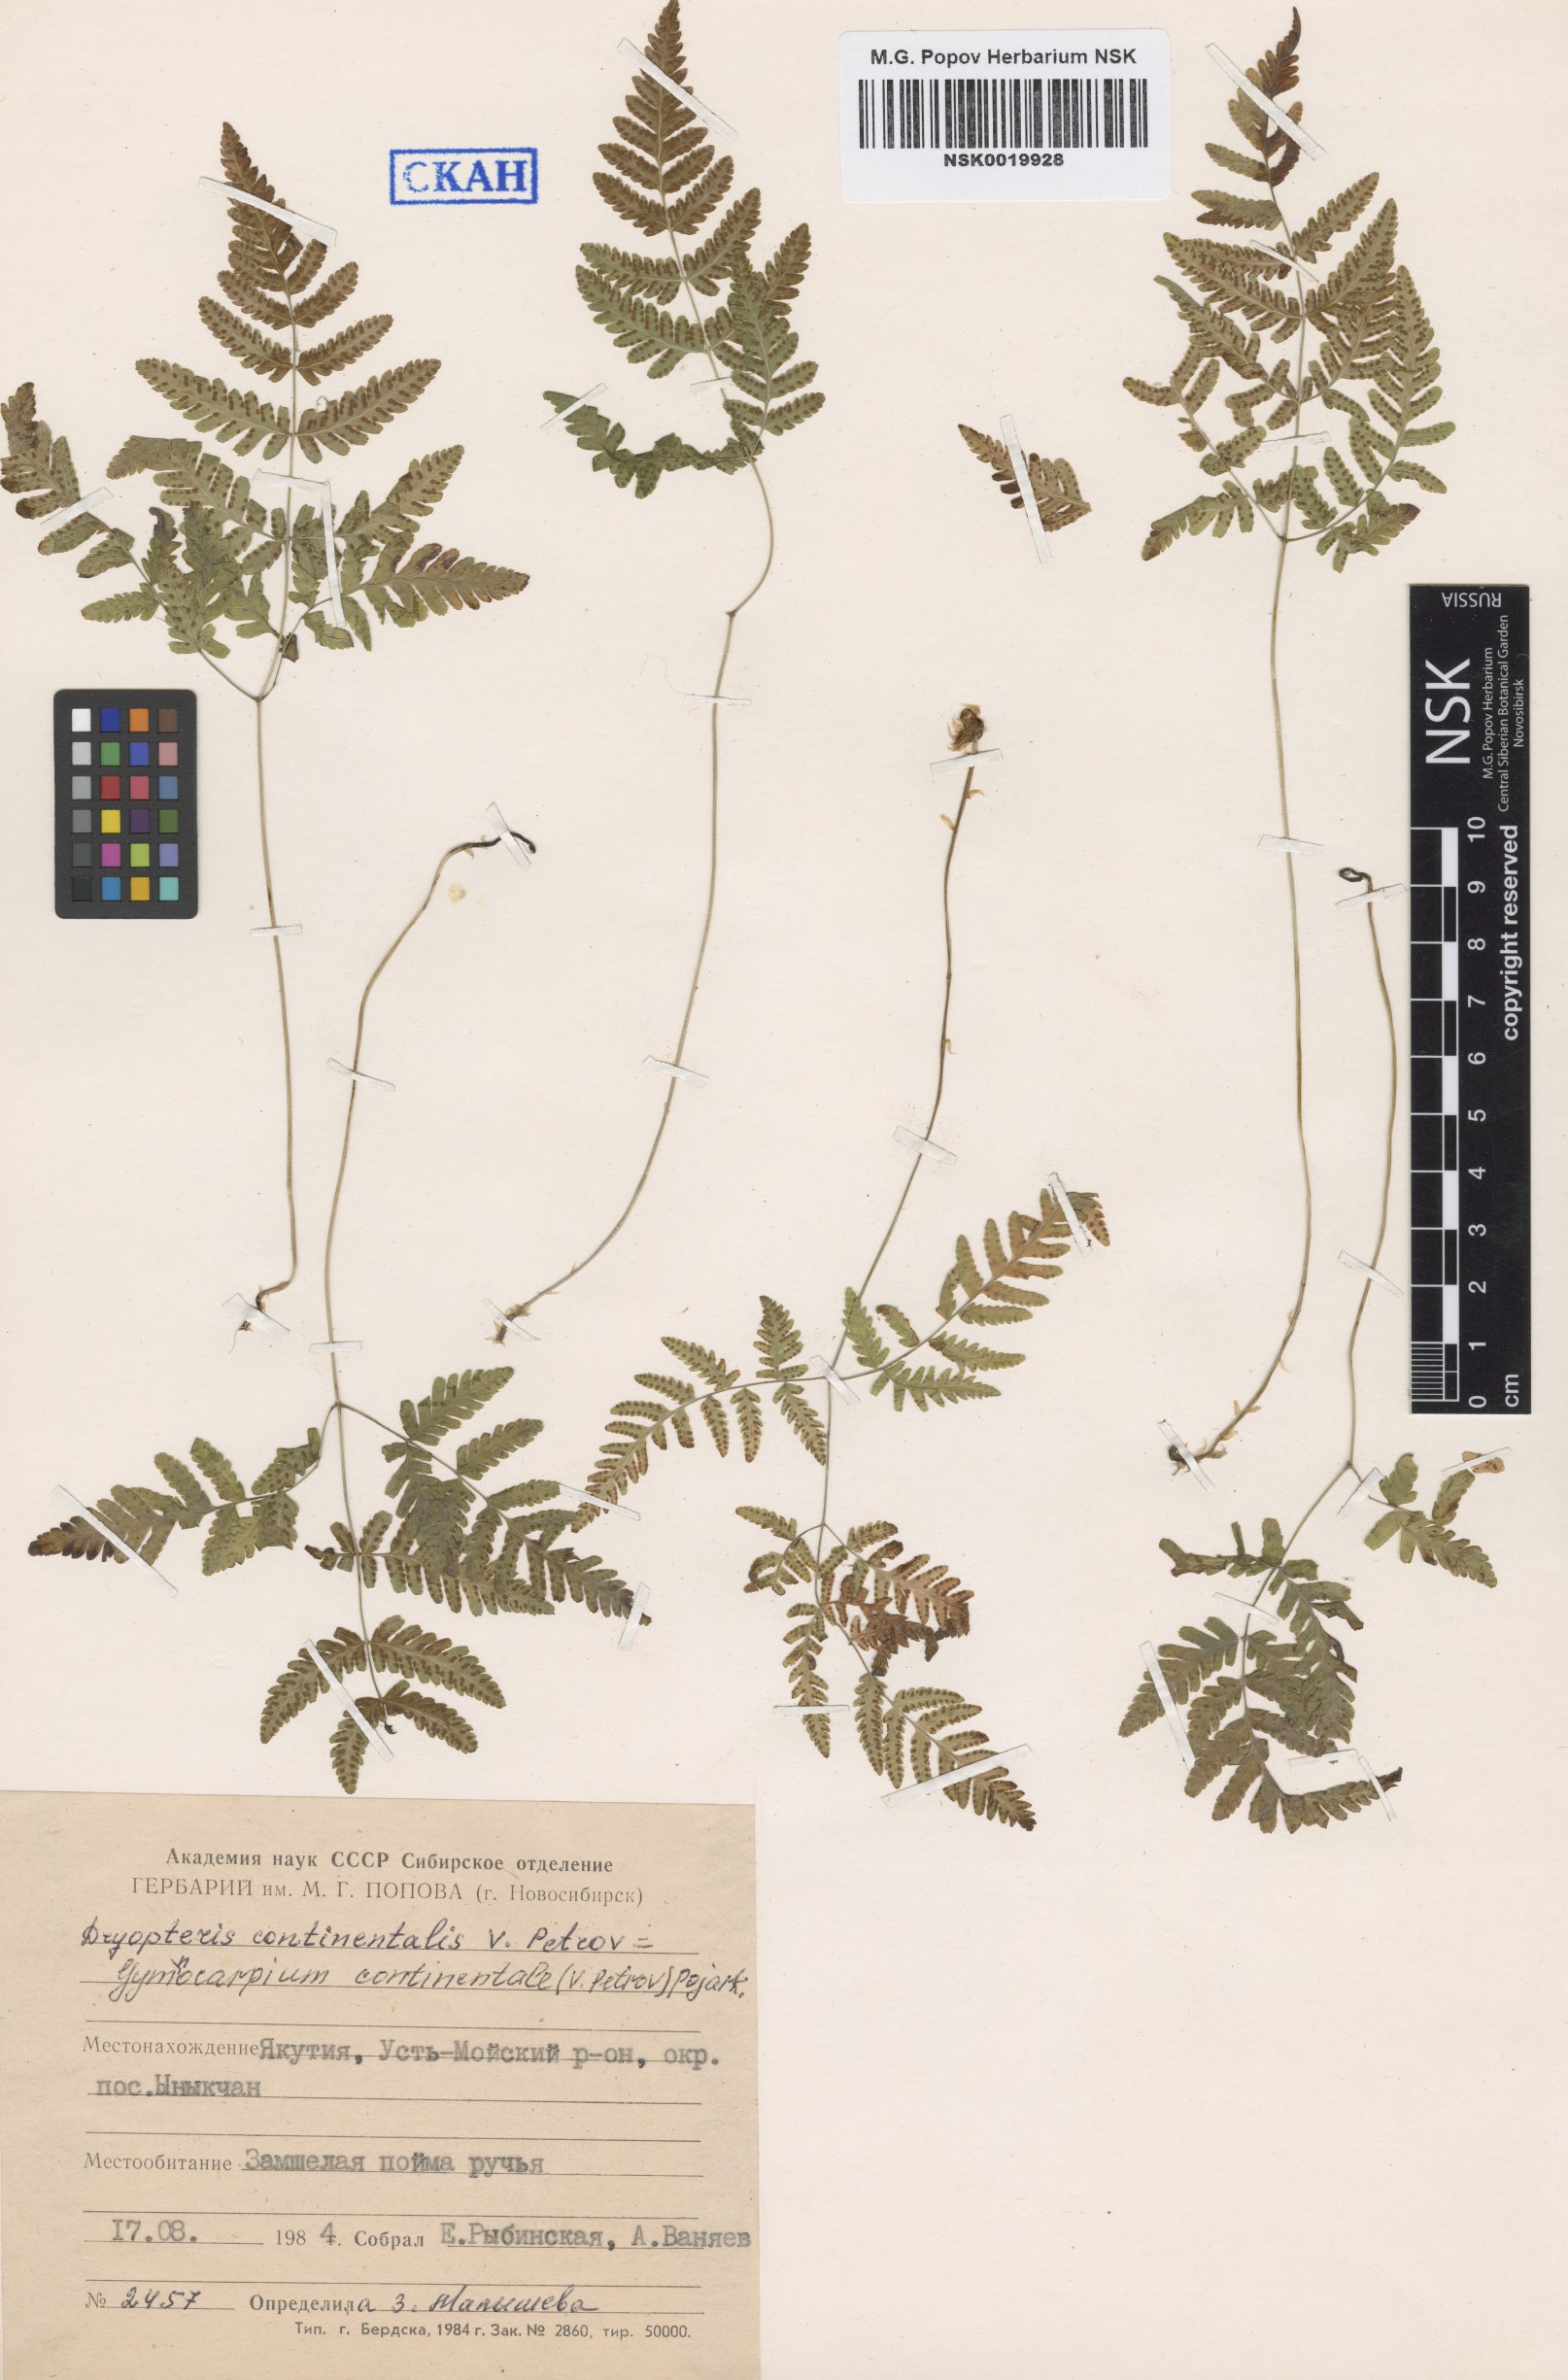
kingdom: Plantae
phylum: Tracheophyta
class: Polypodiopsida
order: Polypodiales
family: Cystopteridaceae
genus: Gymnocarpium
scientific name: Gymnocarpium continentale
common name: Asian oak fern
